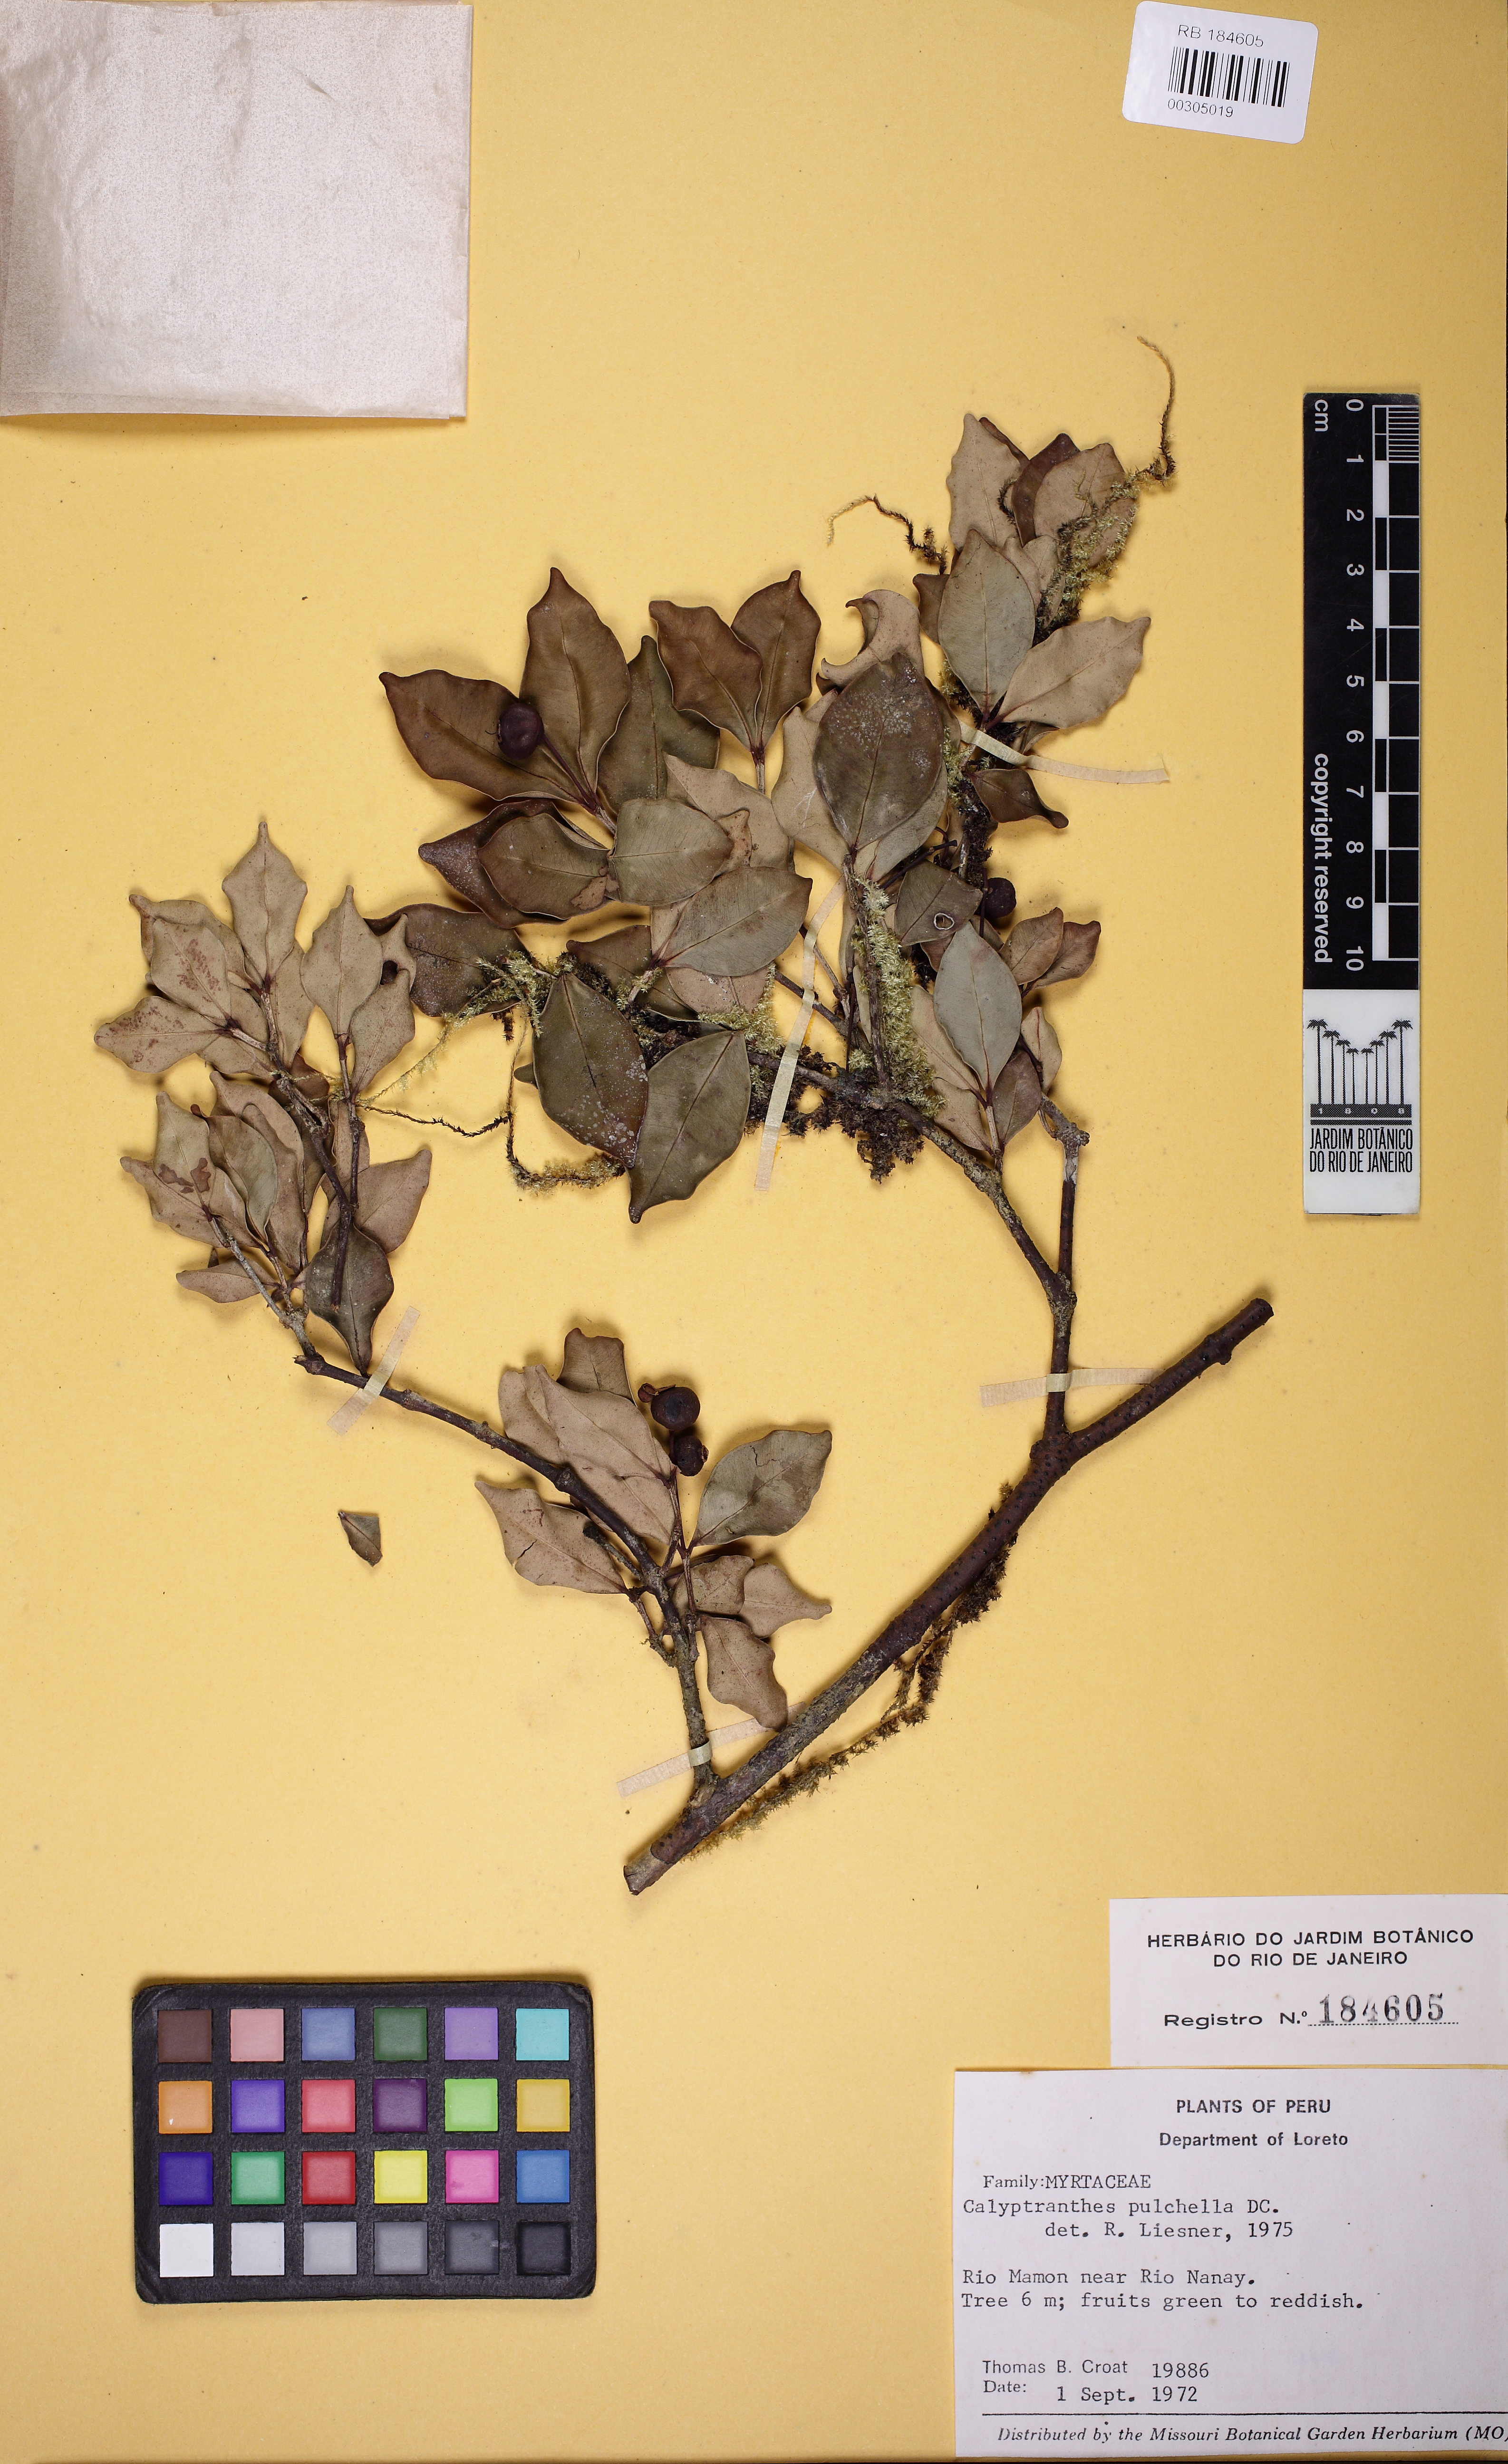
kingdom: Plantae
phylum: Tracheophyta
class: Magnoliopsida
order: Myrtales
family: Myrtaceae
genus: Myrcia
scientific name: Myrcia pulchella
